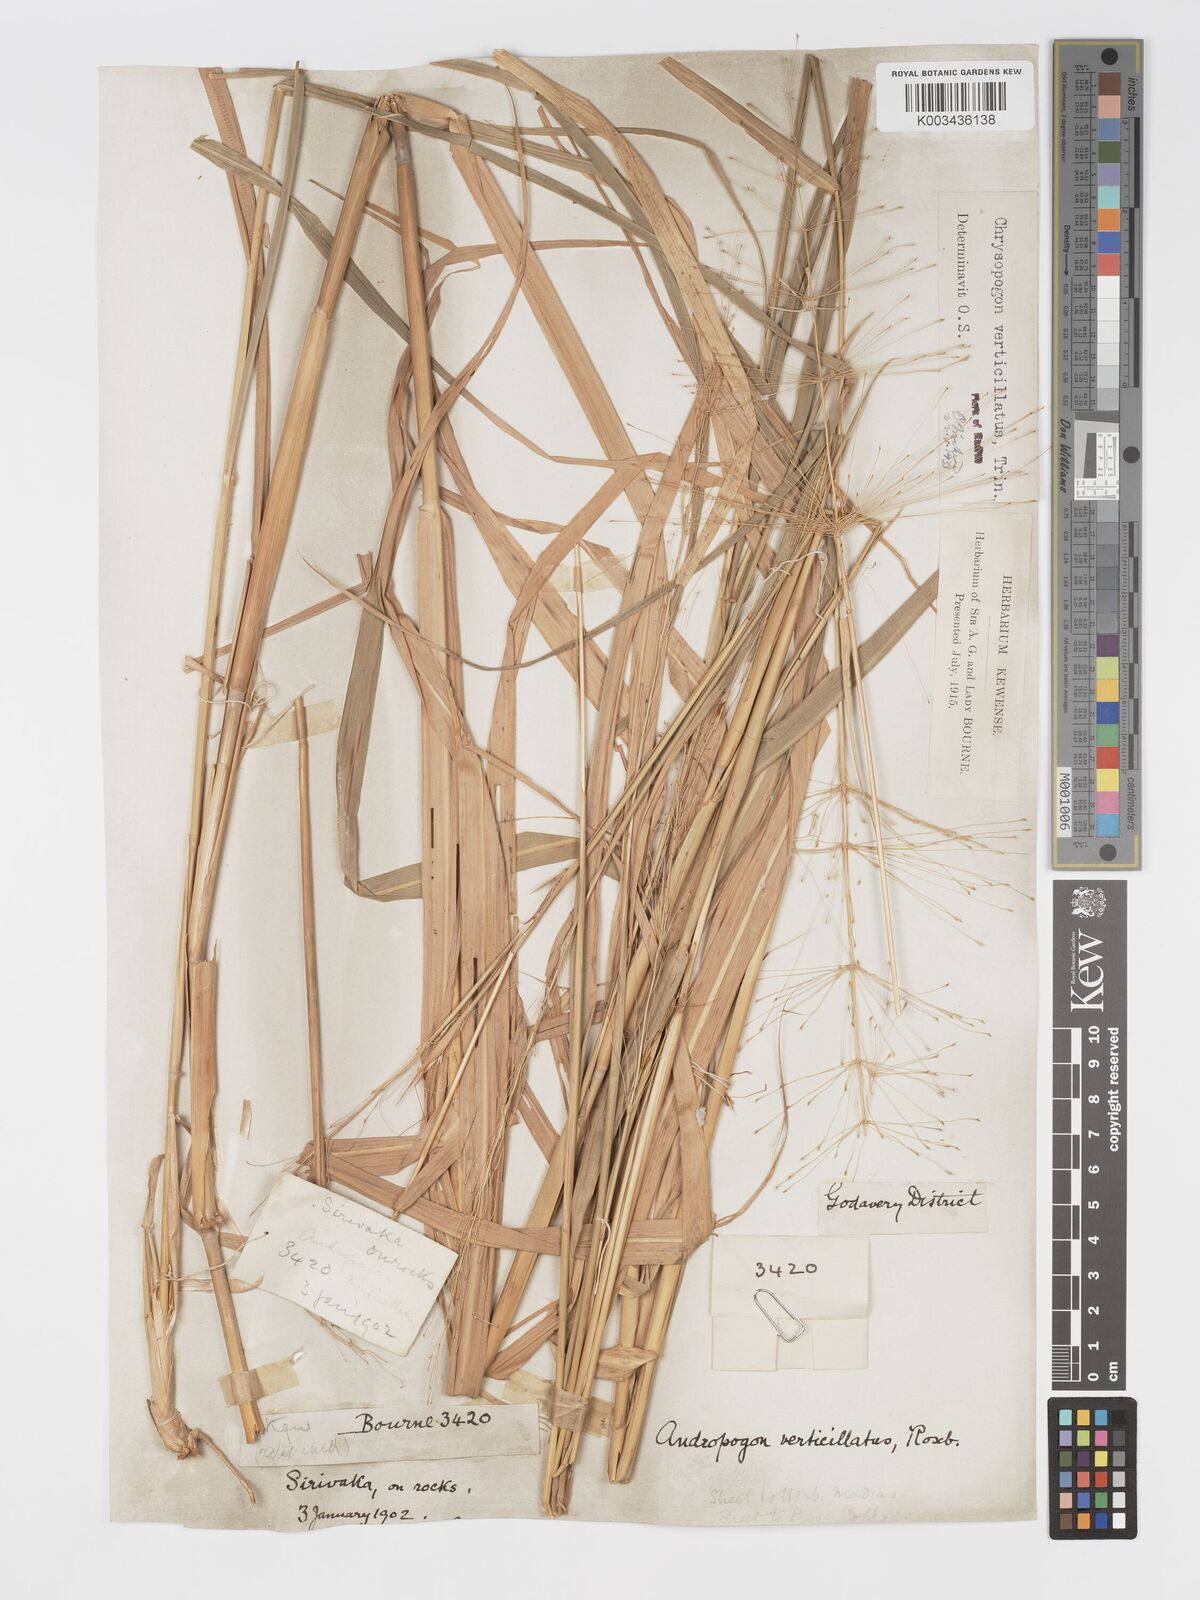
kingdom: Plantae
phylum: Tracheophyta
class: Liliopsida
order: Poales
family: Poaceae
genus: Chrysopogon
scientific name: Chrysopogon verticillatus
